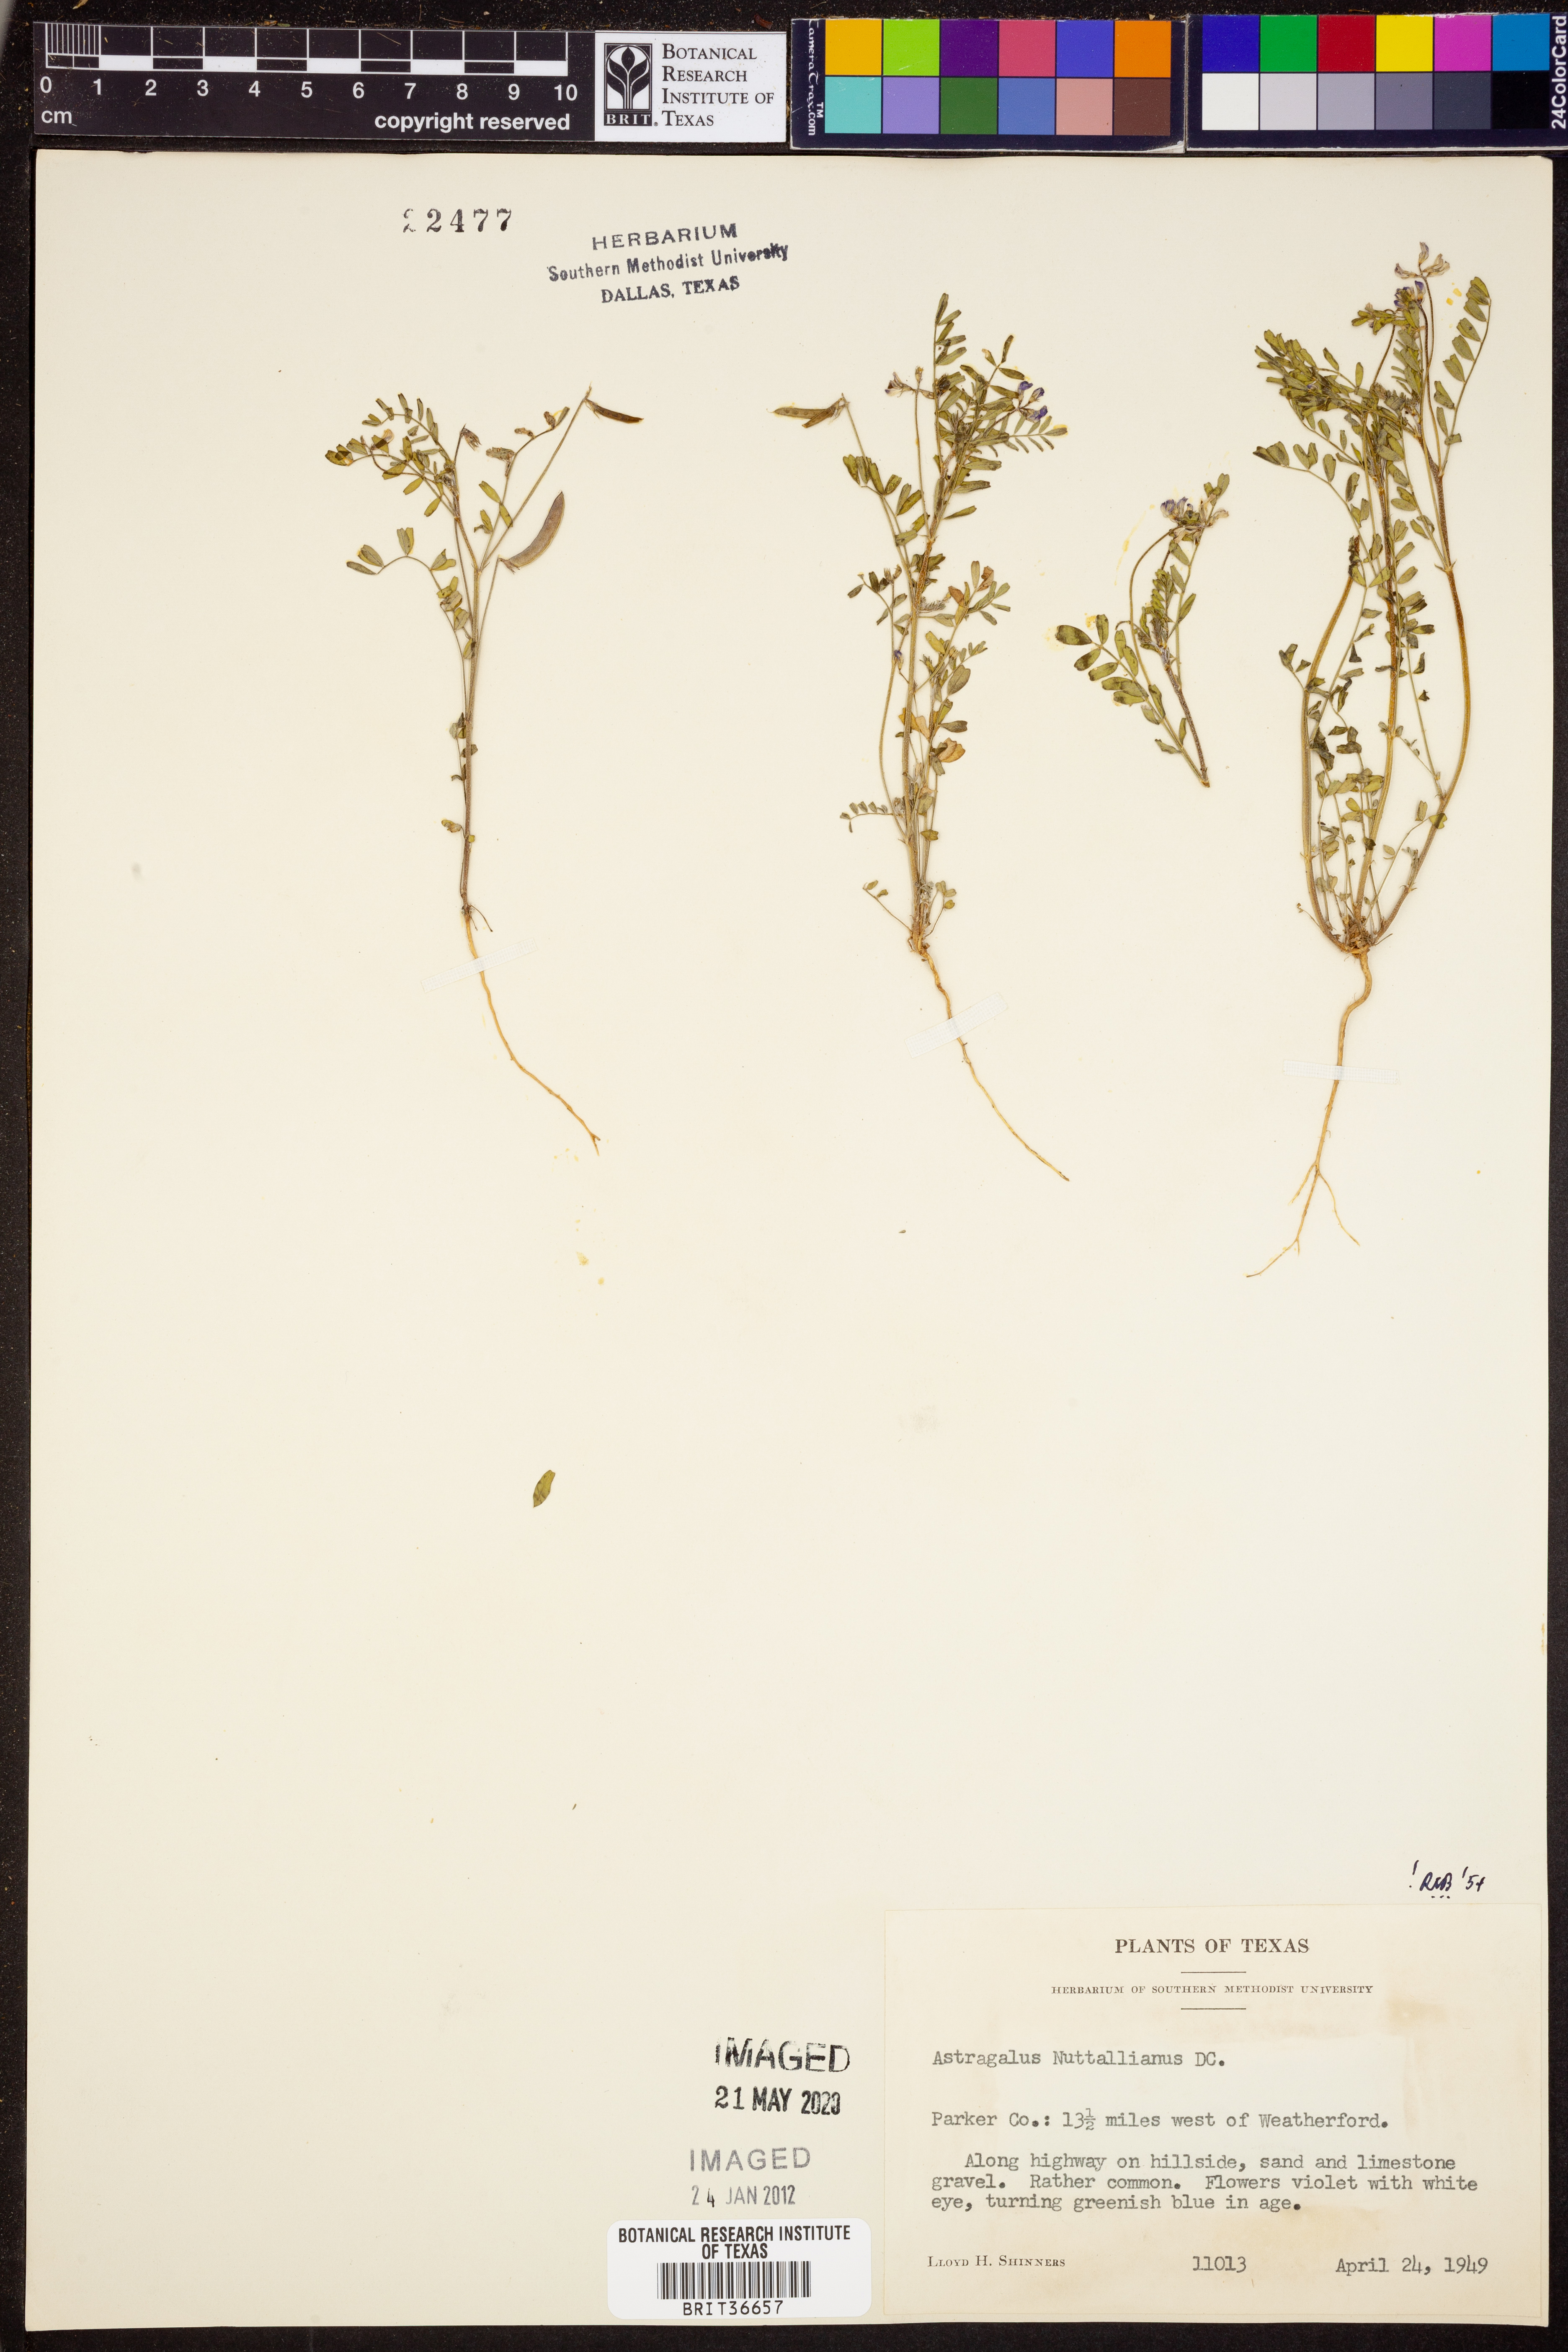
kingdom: Plantae
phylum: Tracheophyta
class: Magnoliopsida
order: Fabales
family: Fabaceae
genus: Astragalus
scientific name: Astragalus nuttallianus
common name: Smallflowered milkvetch
